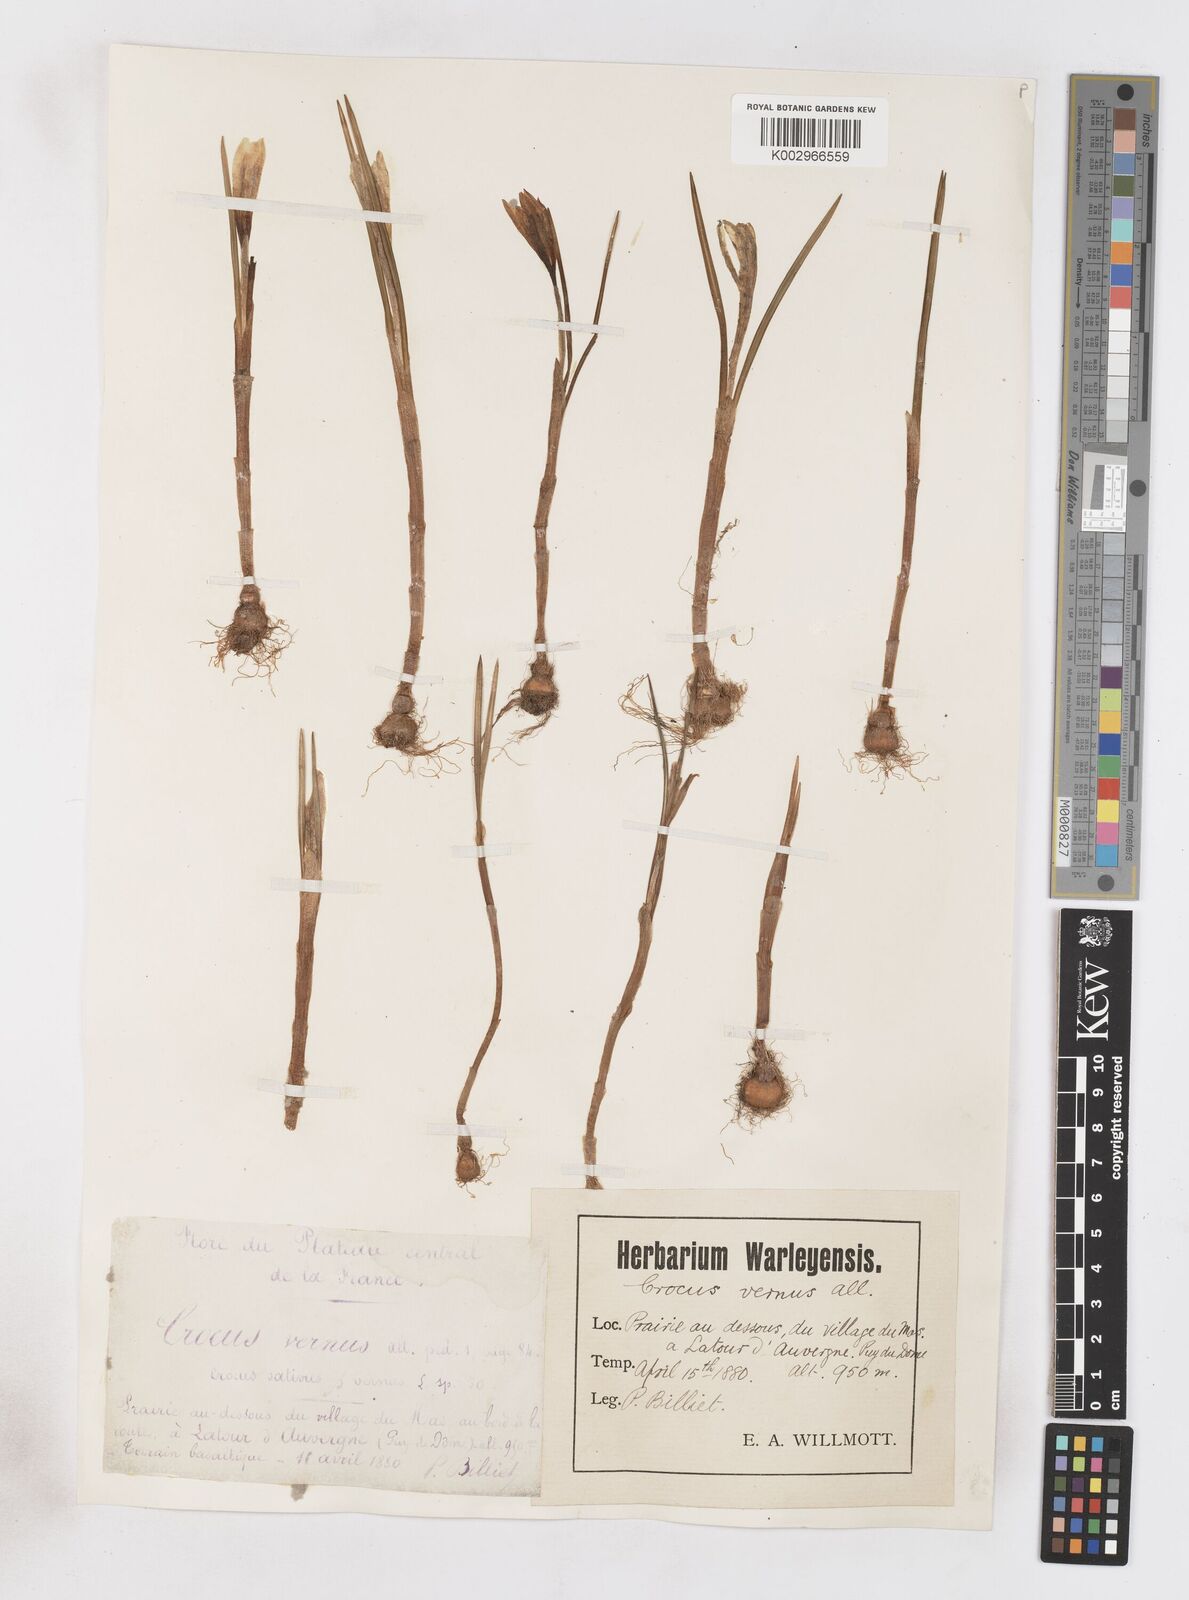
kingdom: Plantae
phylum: Tracheophyta
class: Liliopsida
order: Asparagales
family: Iridaceae
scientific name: Iridaceae
